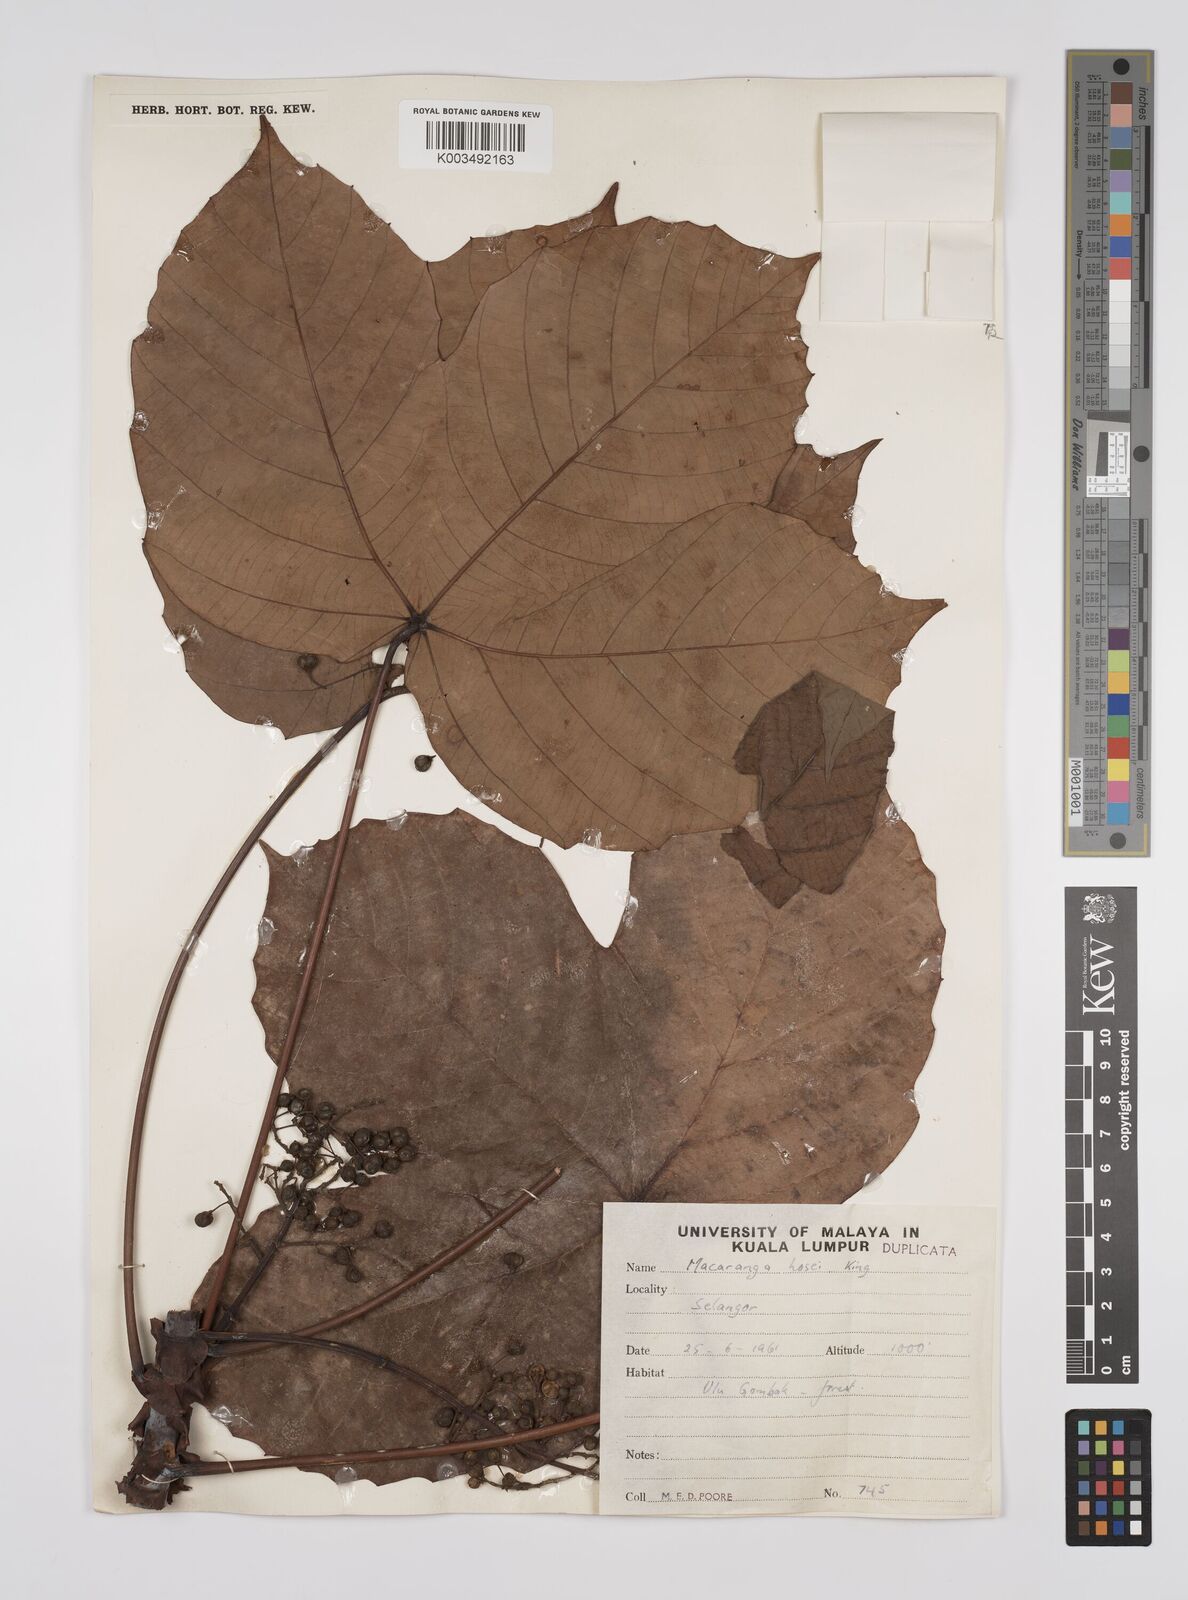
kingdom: Plantae
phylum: Tracheophyta
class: Magnoliopsida
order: Malpighiales
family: Euphorbiaceae
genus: Macaranga
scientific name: Macaranga hosei
